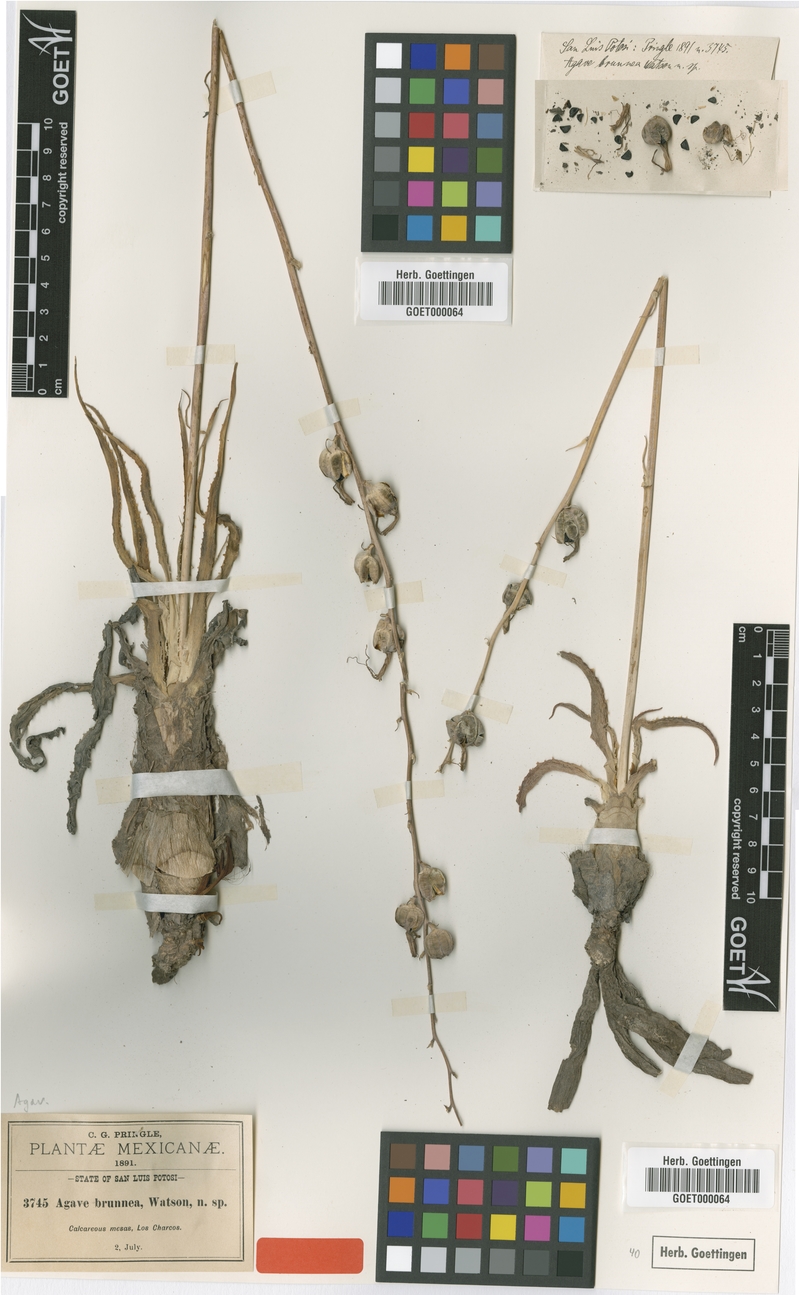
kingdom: Plantae
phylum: Tracheophyta
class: Liliopsida
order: Asparagales
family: Asparagaceae
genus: Agave
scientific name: Agave brunnea
